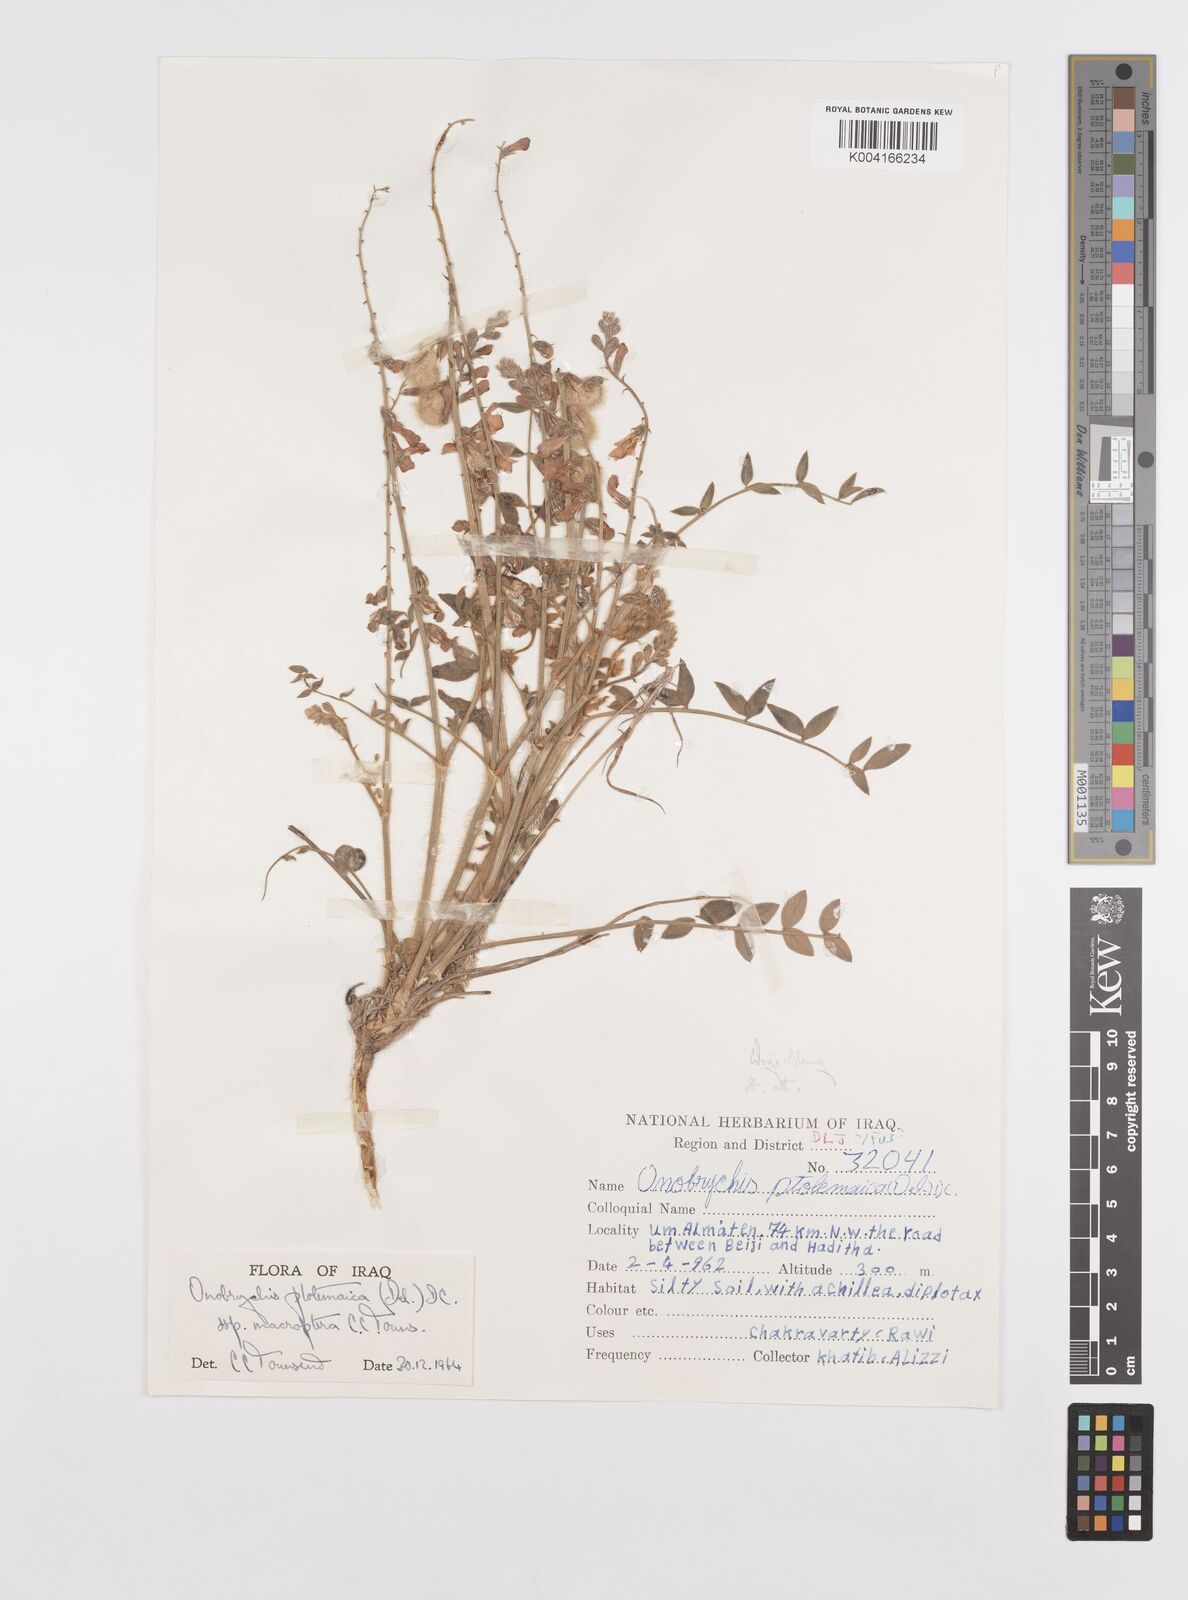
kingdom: Plantae
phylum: Tracheophyta
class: Magnoliopsida
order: Fabales
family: Fabaceae
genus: Onobrychis
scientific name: Onobrychis ptolemaica
